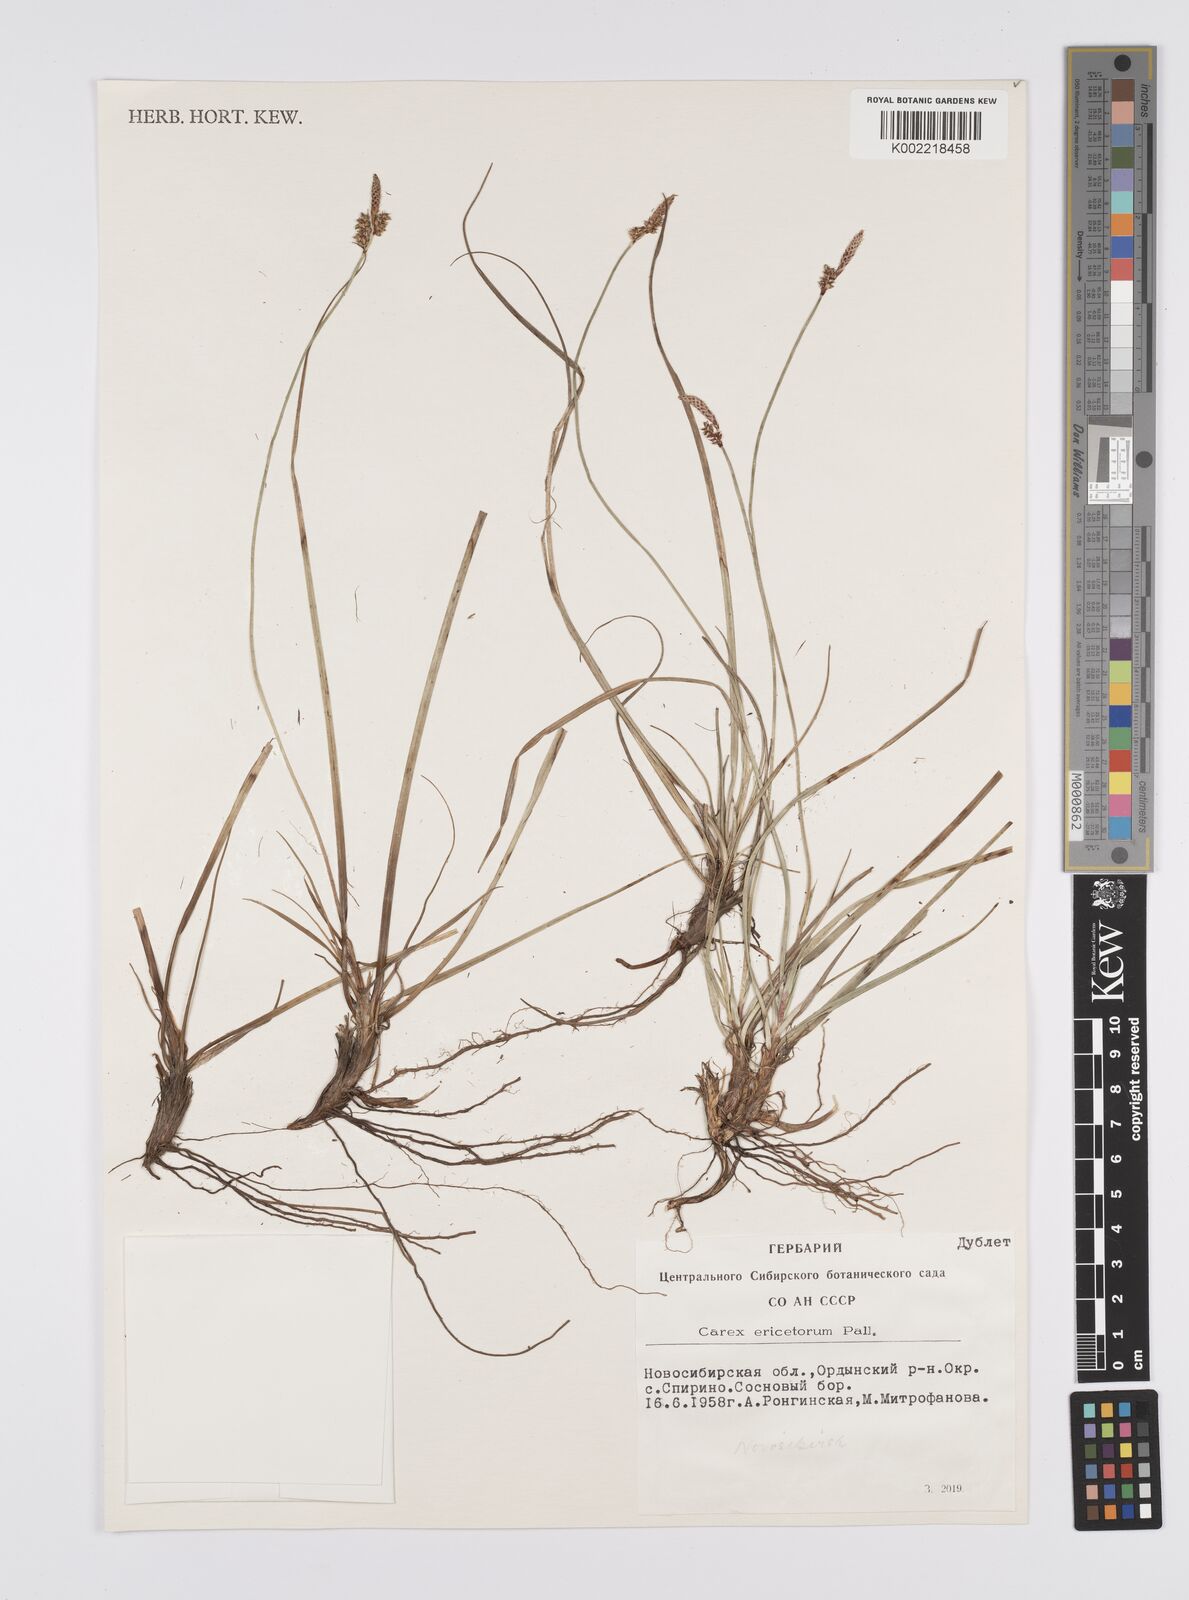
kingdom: Plantae
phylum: Tracheophyta
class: Liliopsida
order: Poales
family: Cyperaceae
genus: Carex
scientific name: Carex ericetorum
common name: Rare spring-sedge
